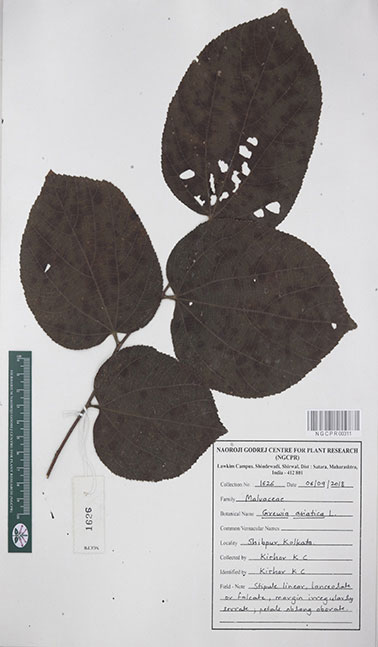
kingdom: Plantae
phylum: Tracheophyta
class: Magnoliopsida
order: Malvales
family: Malvaceae
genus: Grewia
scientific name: Grewia asiatica
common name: Phalsa
